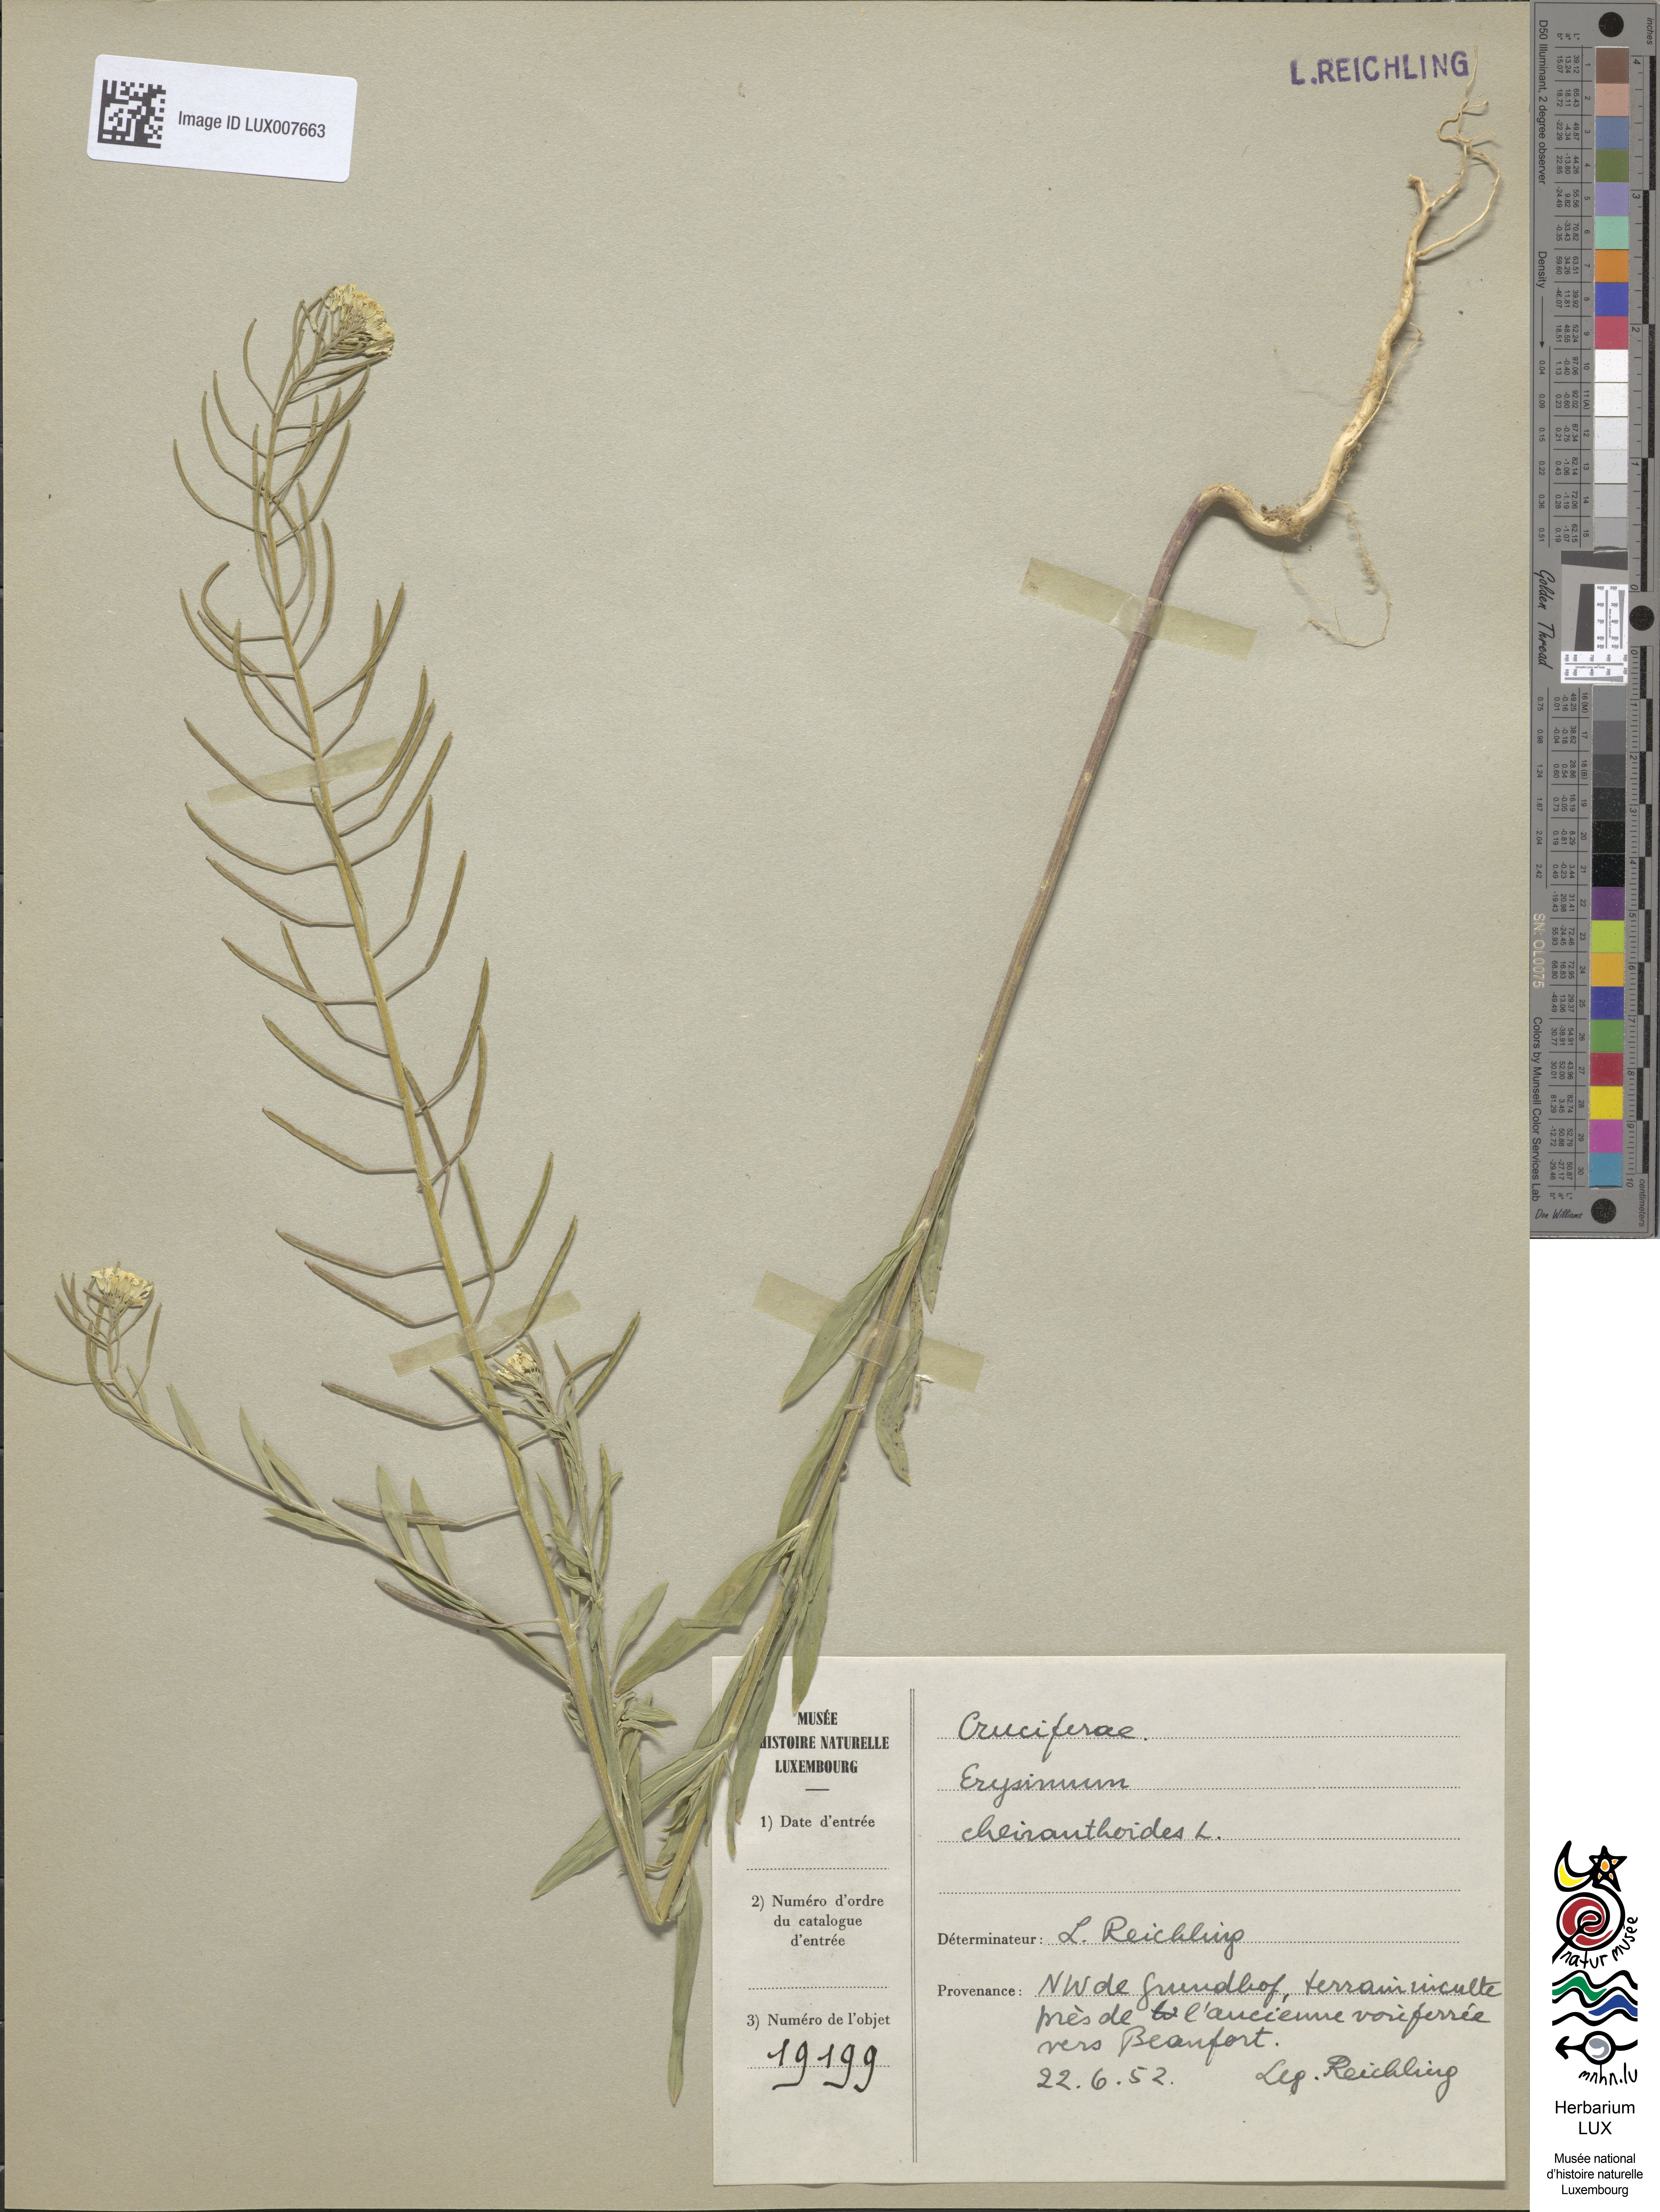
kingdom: Plantae
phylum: Tracheophyta
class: Magnoliopsida
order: Brassicales
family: Brassicaceae
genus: Erysimum
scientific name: Erysimum cheiranthoides
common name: Treacle mustard
